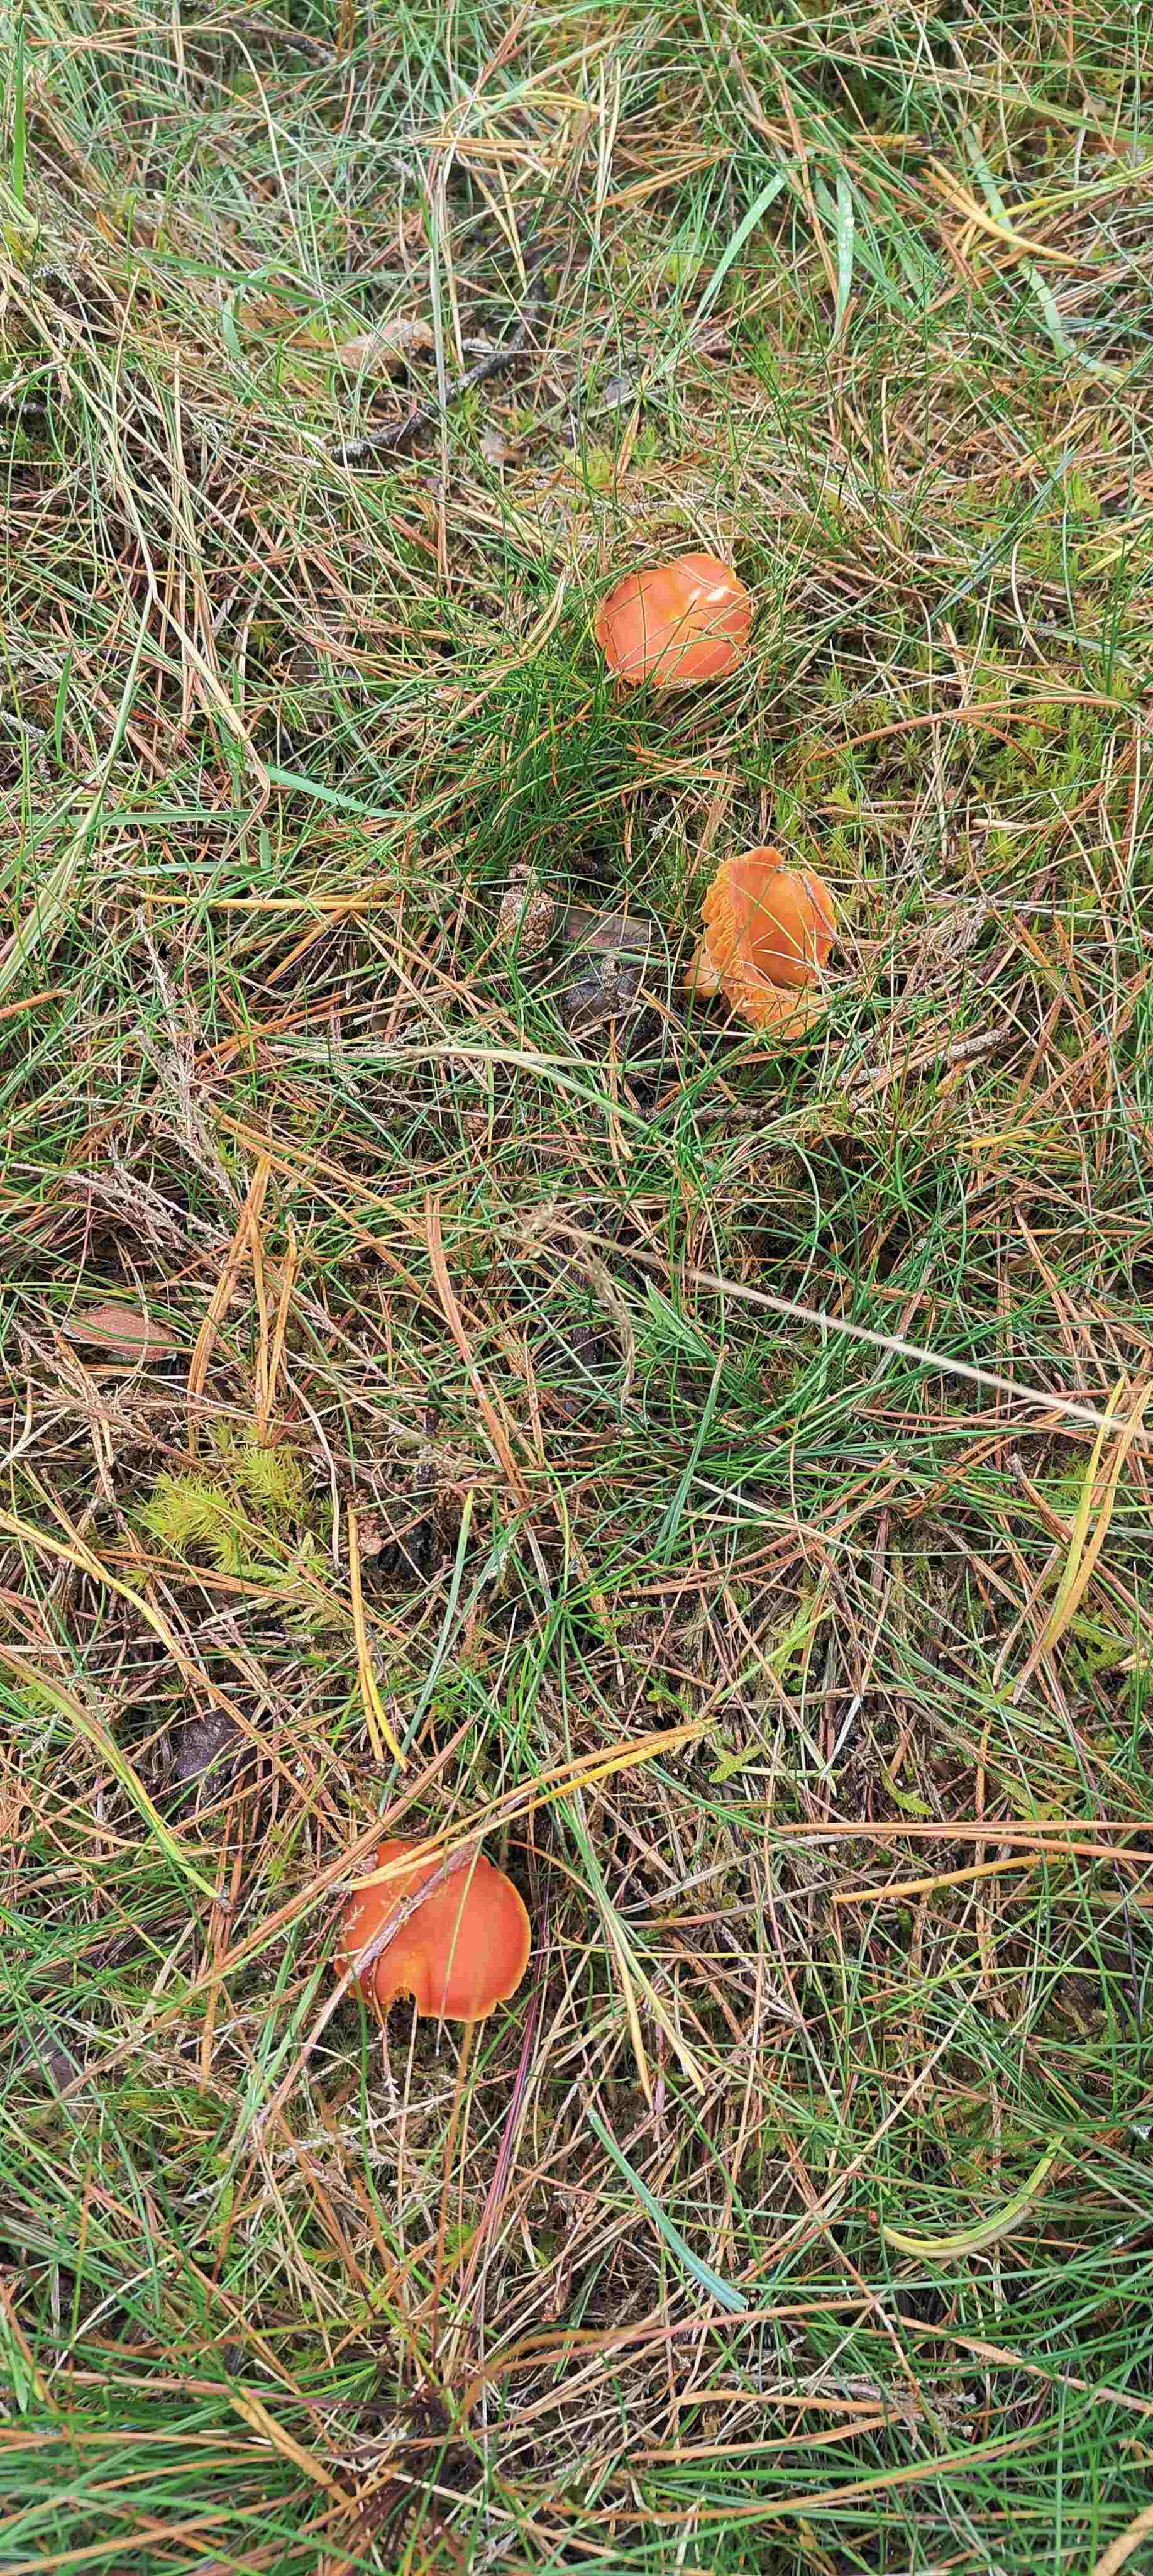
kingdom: Fungi
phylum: Basidiomycota
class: Agaricomycetes
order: Agaricales
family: Hygrophoraceae
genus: Hygrocybe
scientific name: Hygrocybe miniata
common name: mønje-vokshat
